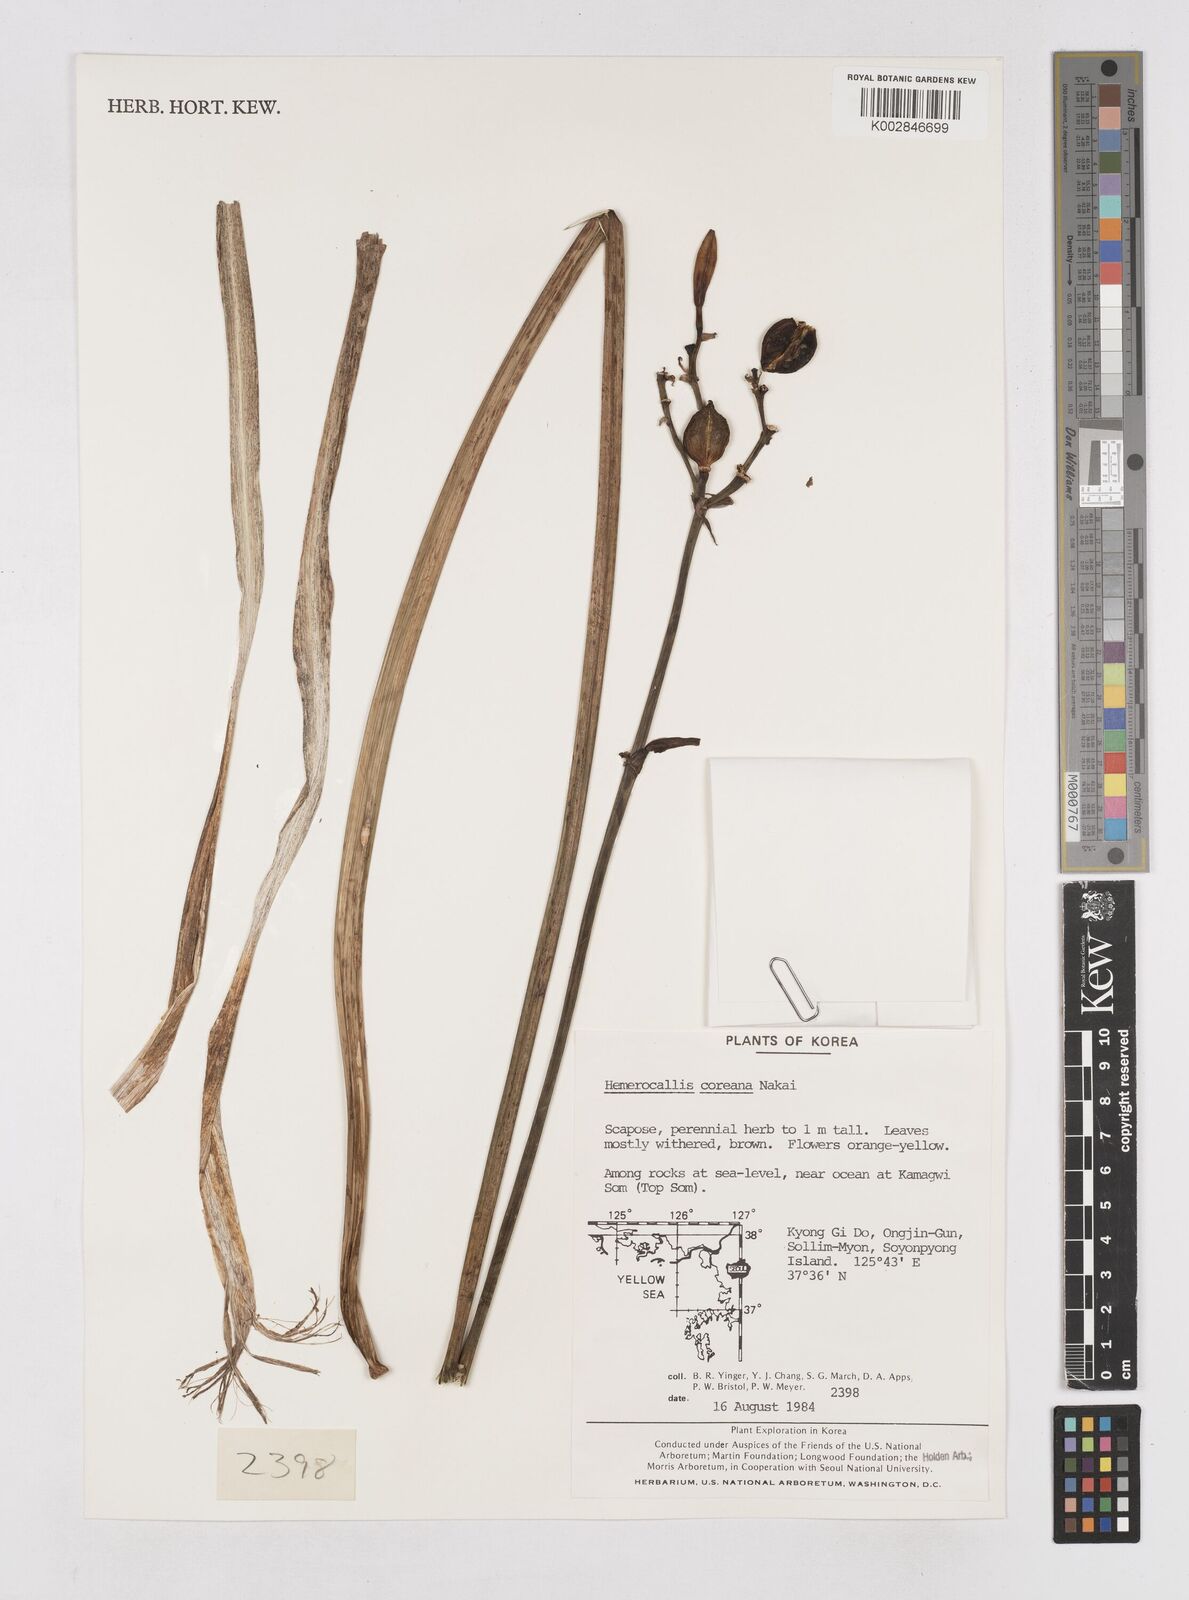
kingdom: Plantae
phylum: Tracheophyta
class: Liliopsida
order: Asparagales
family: Asphodelaceae
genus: Hemerocallis
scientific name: Hemerocallis coreana
